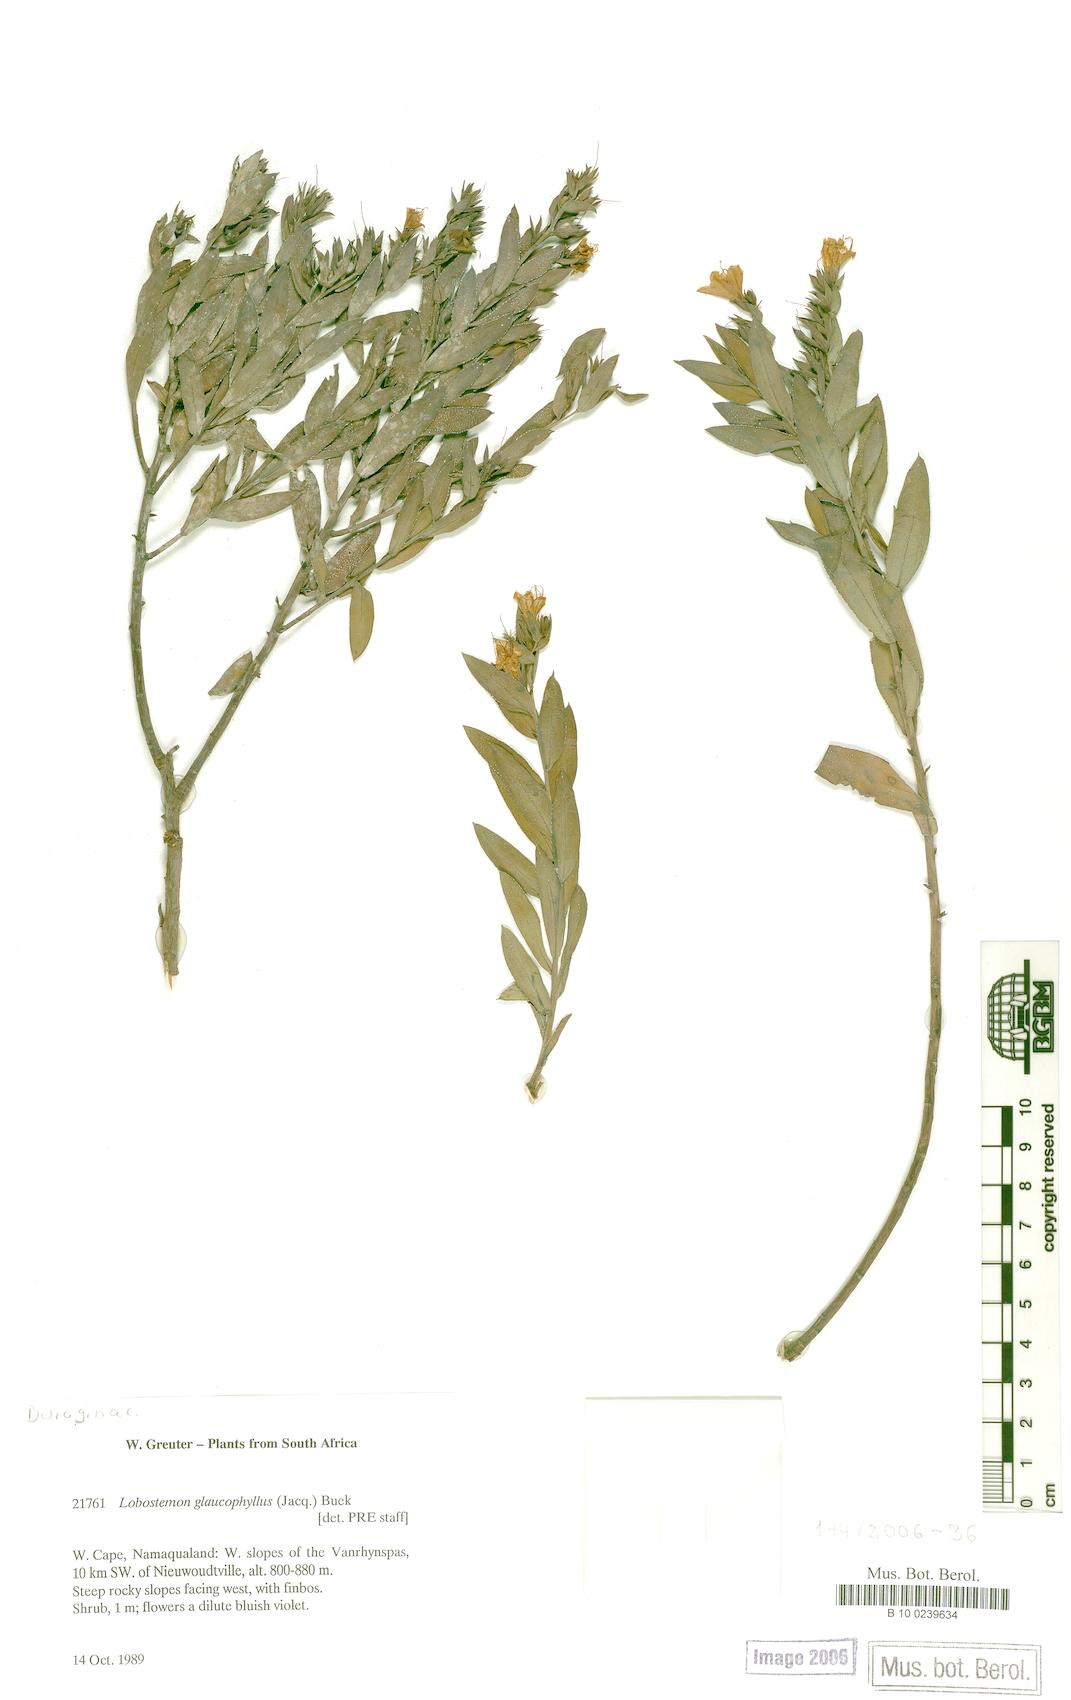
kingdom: Plantae
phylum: Tracheophyta
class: Magnoliopsida
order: Boraginales
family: Boraginaceae
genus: Lobostemon
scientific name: Lobostemon glaucophyllus
